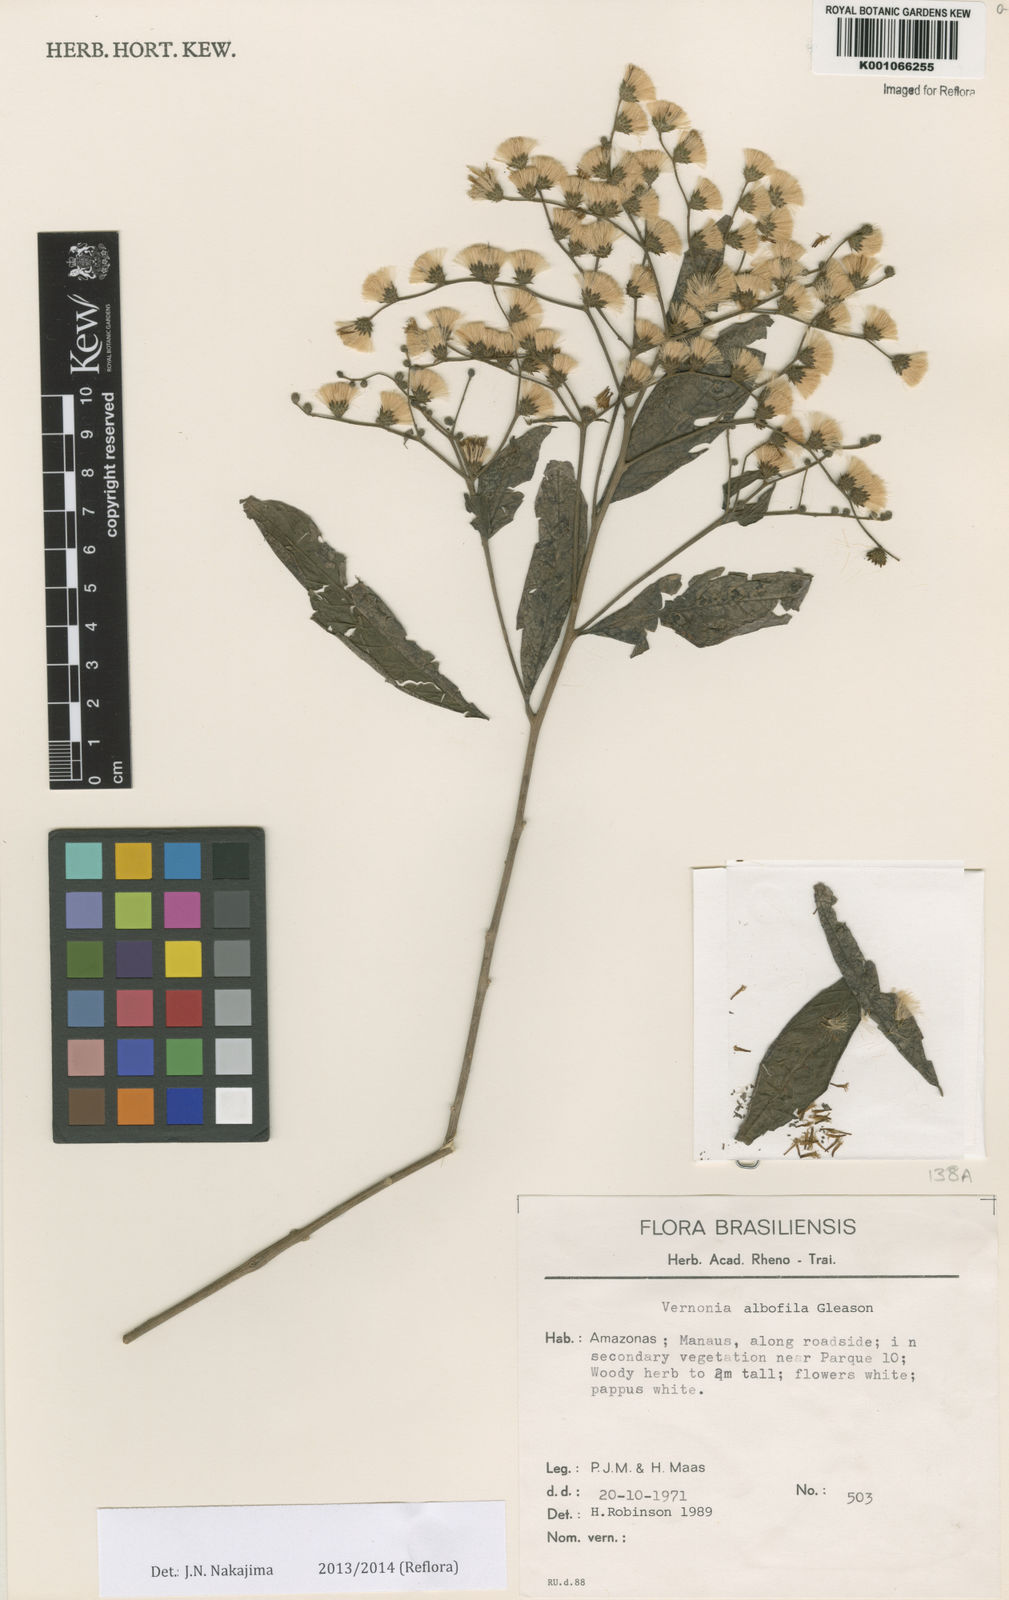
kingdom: Plantae
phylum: Tracheophyta
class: Magnoliopsida
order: Asterales
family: Asteraceae
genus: Vernonia
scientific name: Vernonia
